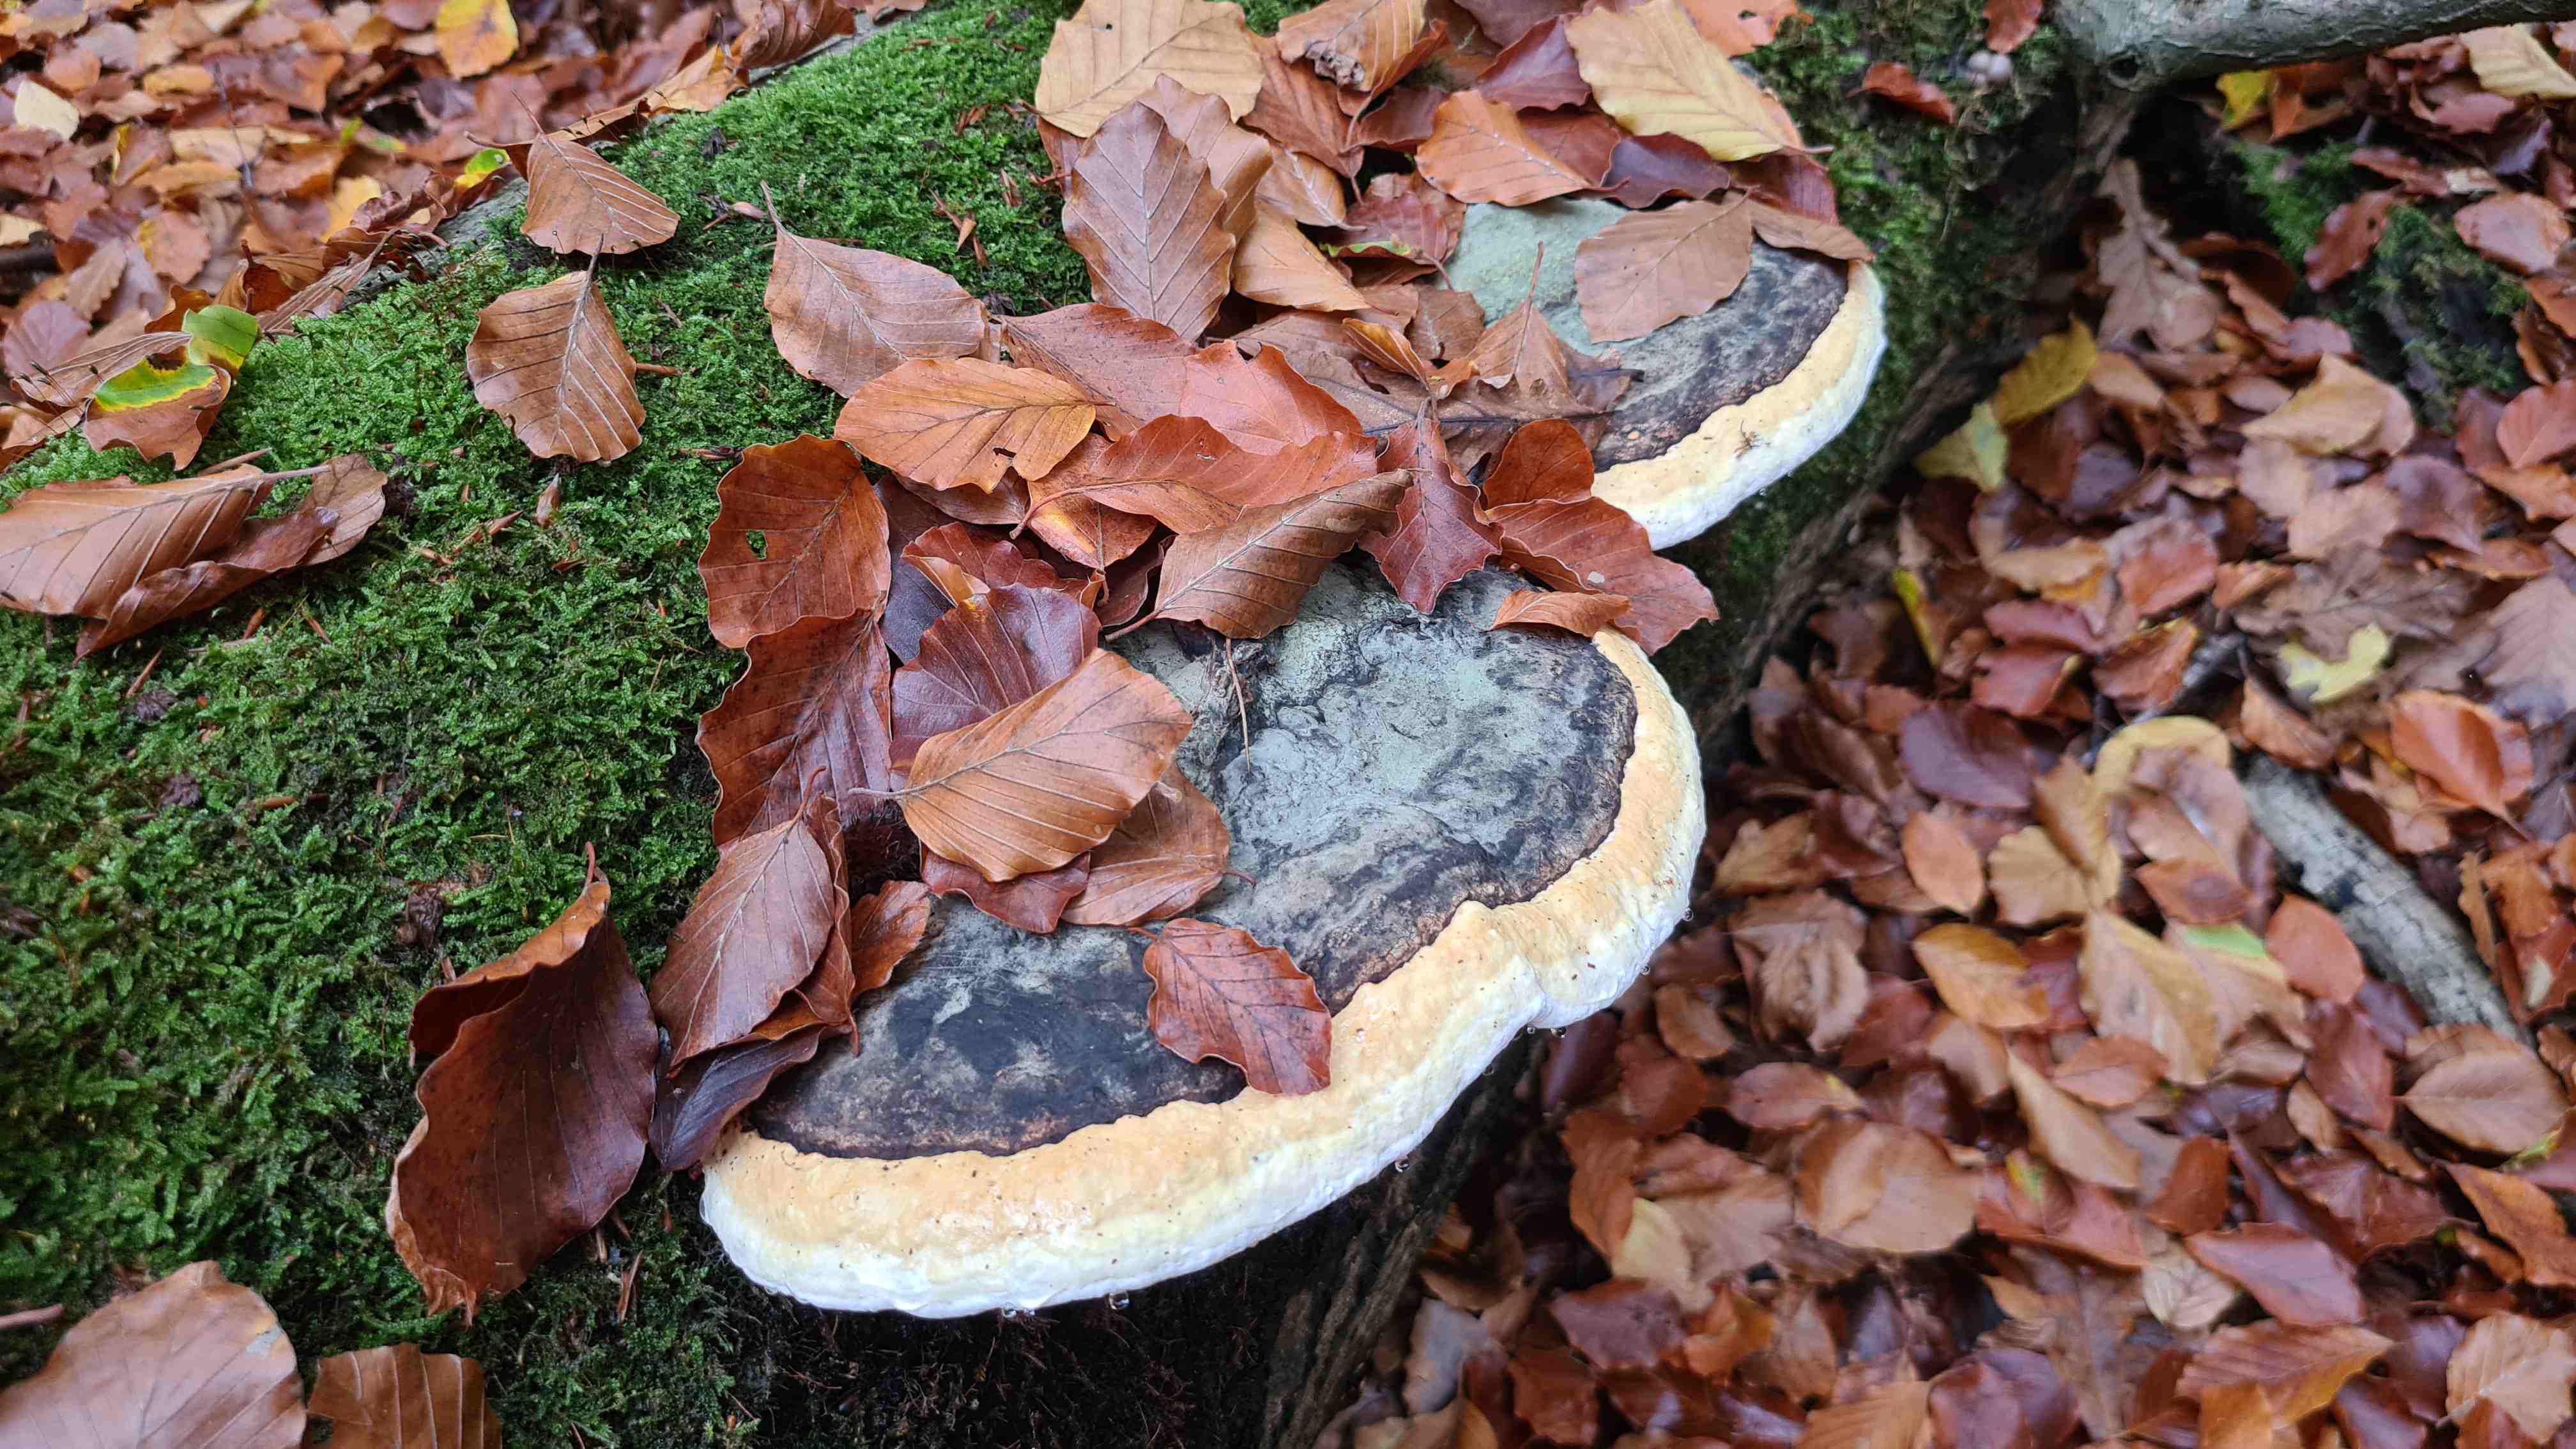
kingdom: Fungi
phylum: Basidiomycota
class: Agaricomycetes
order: Polyporales
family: Fomitopsidaceae
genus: Fomitopsis
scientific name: Fomitopsis pinicola
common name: randbæltet hovporesvamp
